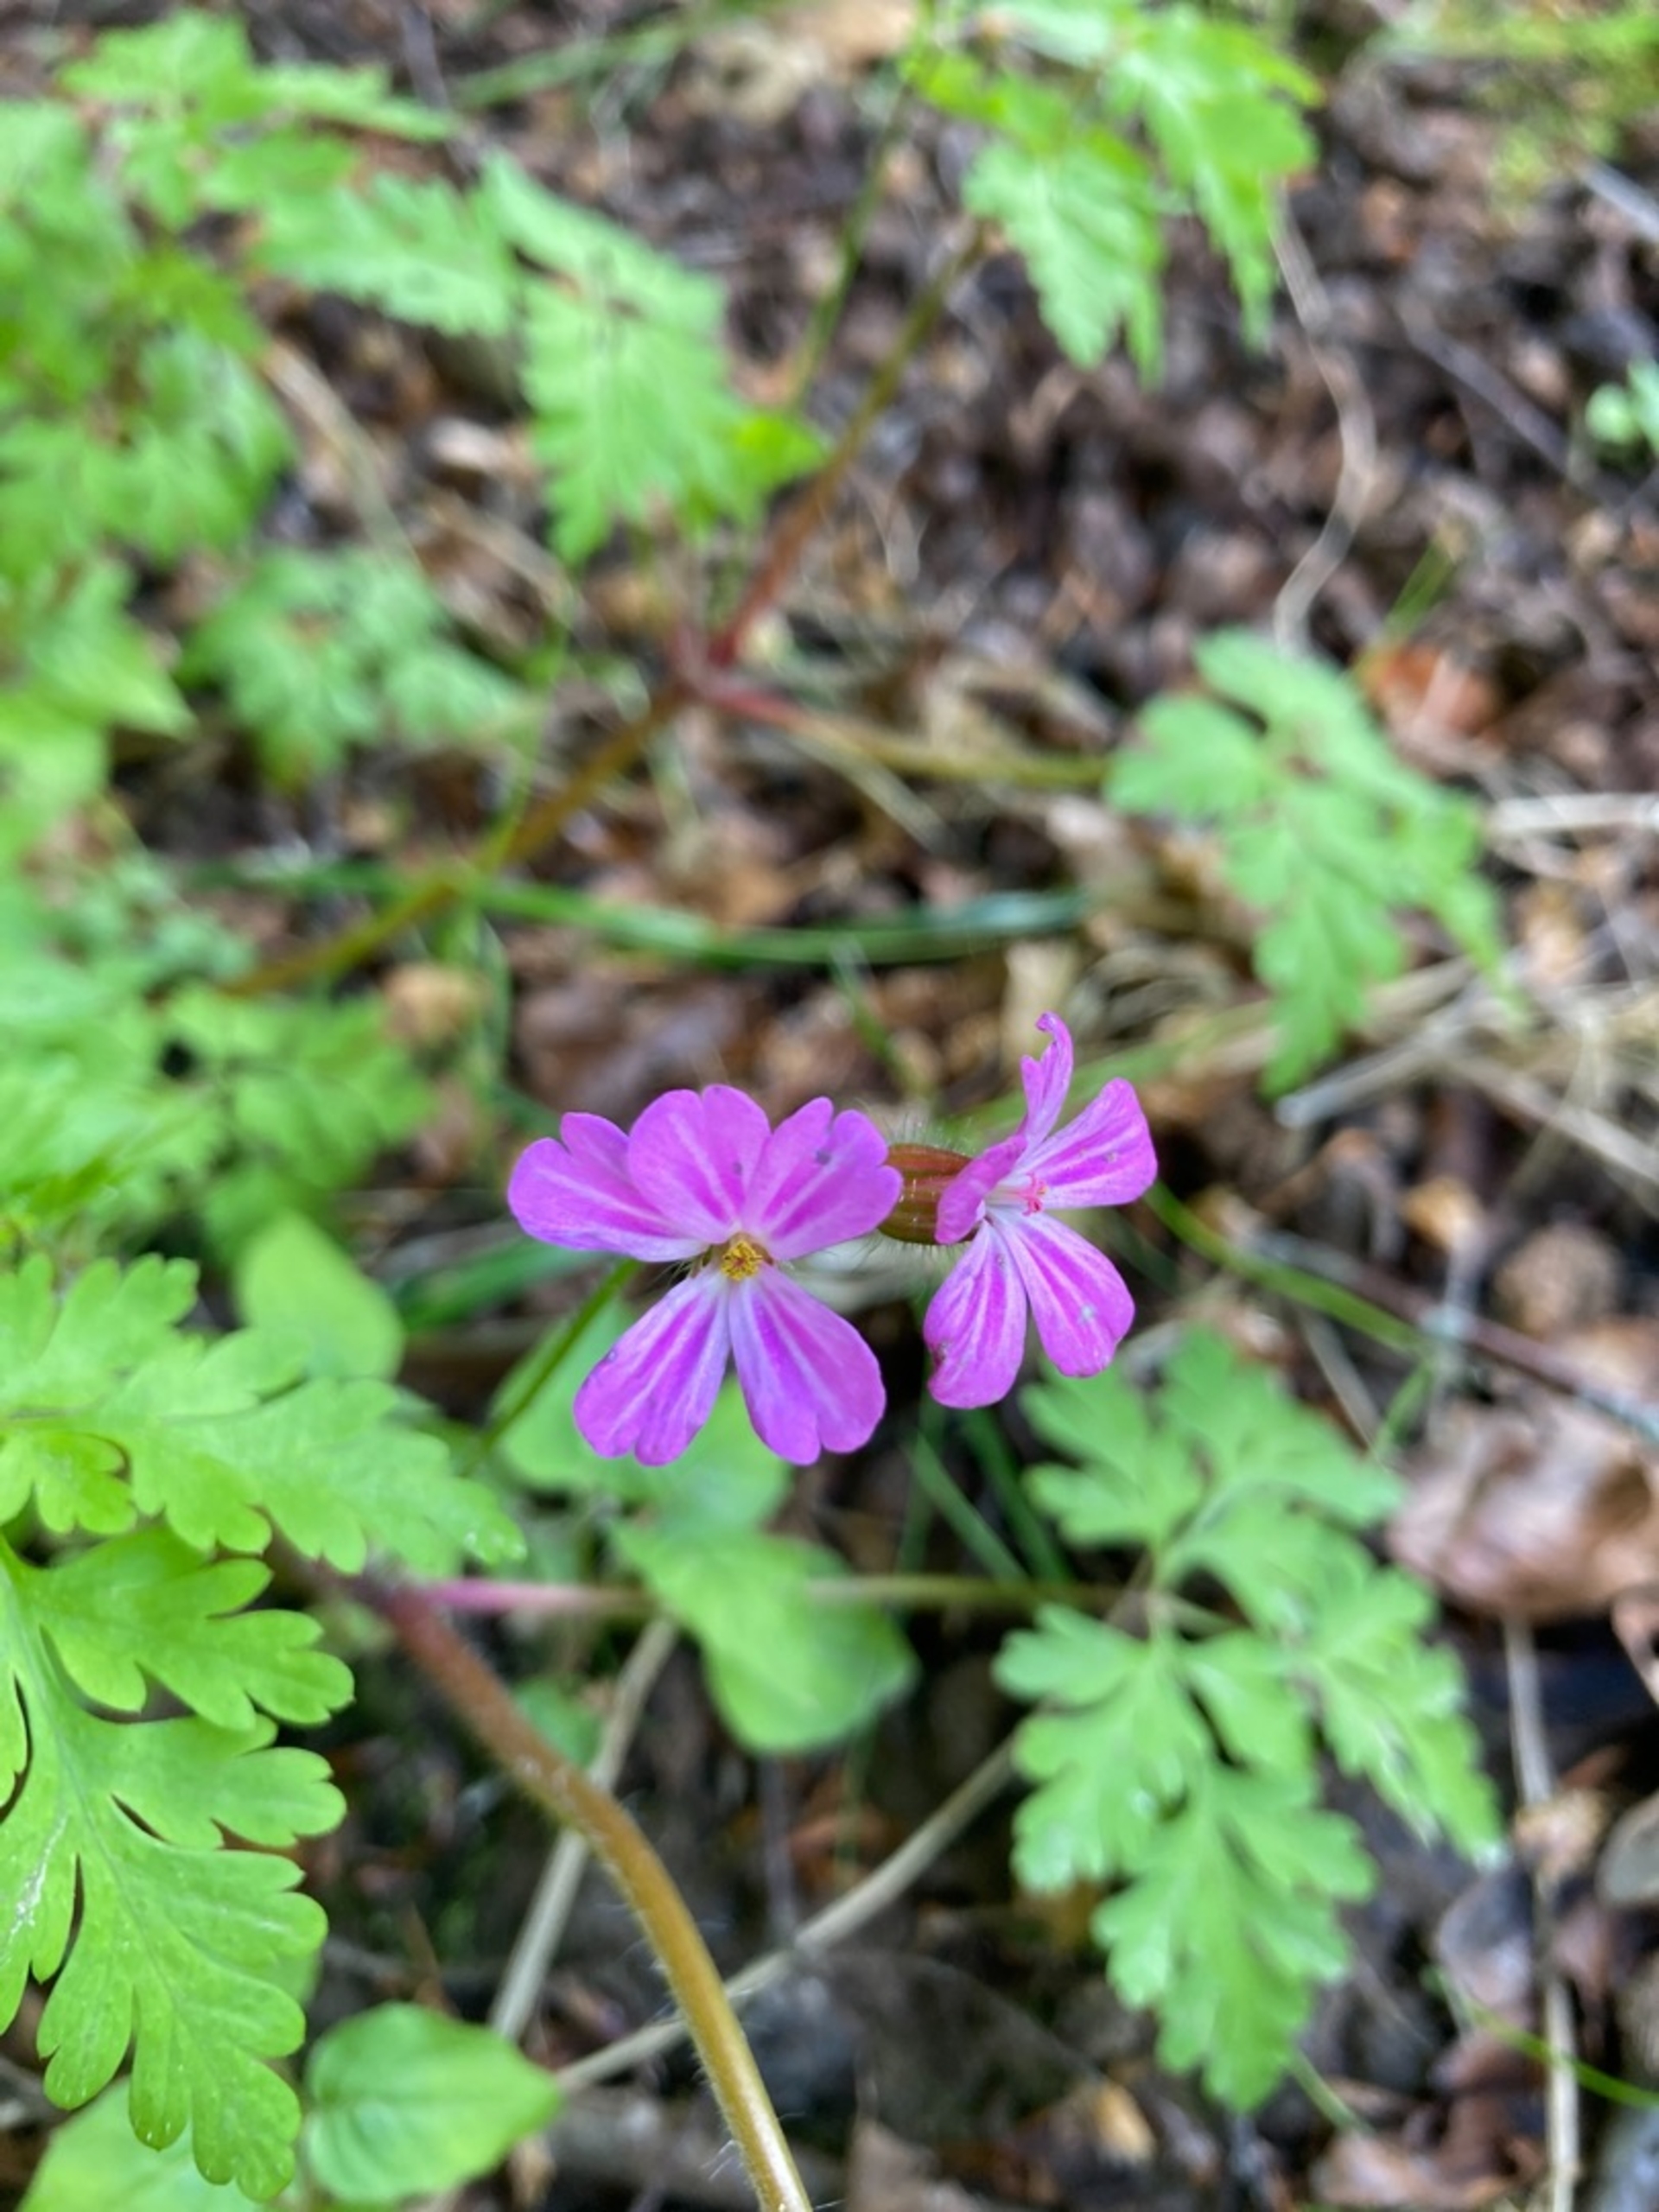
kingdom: Plantae
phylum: Tracheophyta
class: Magnoliopsida
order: Geraniales
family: Geraniaceae
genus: Geranium
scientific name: Geranium robertianum
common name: Stinkende storkenæb
